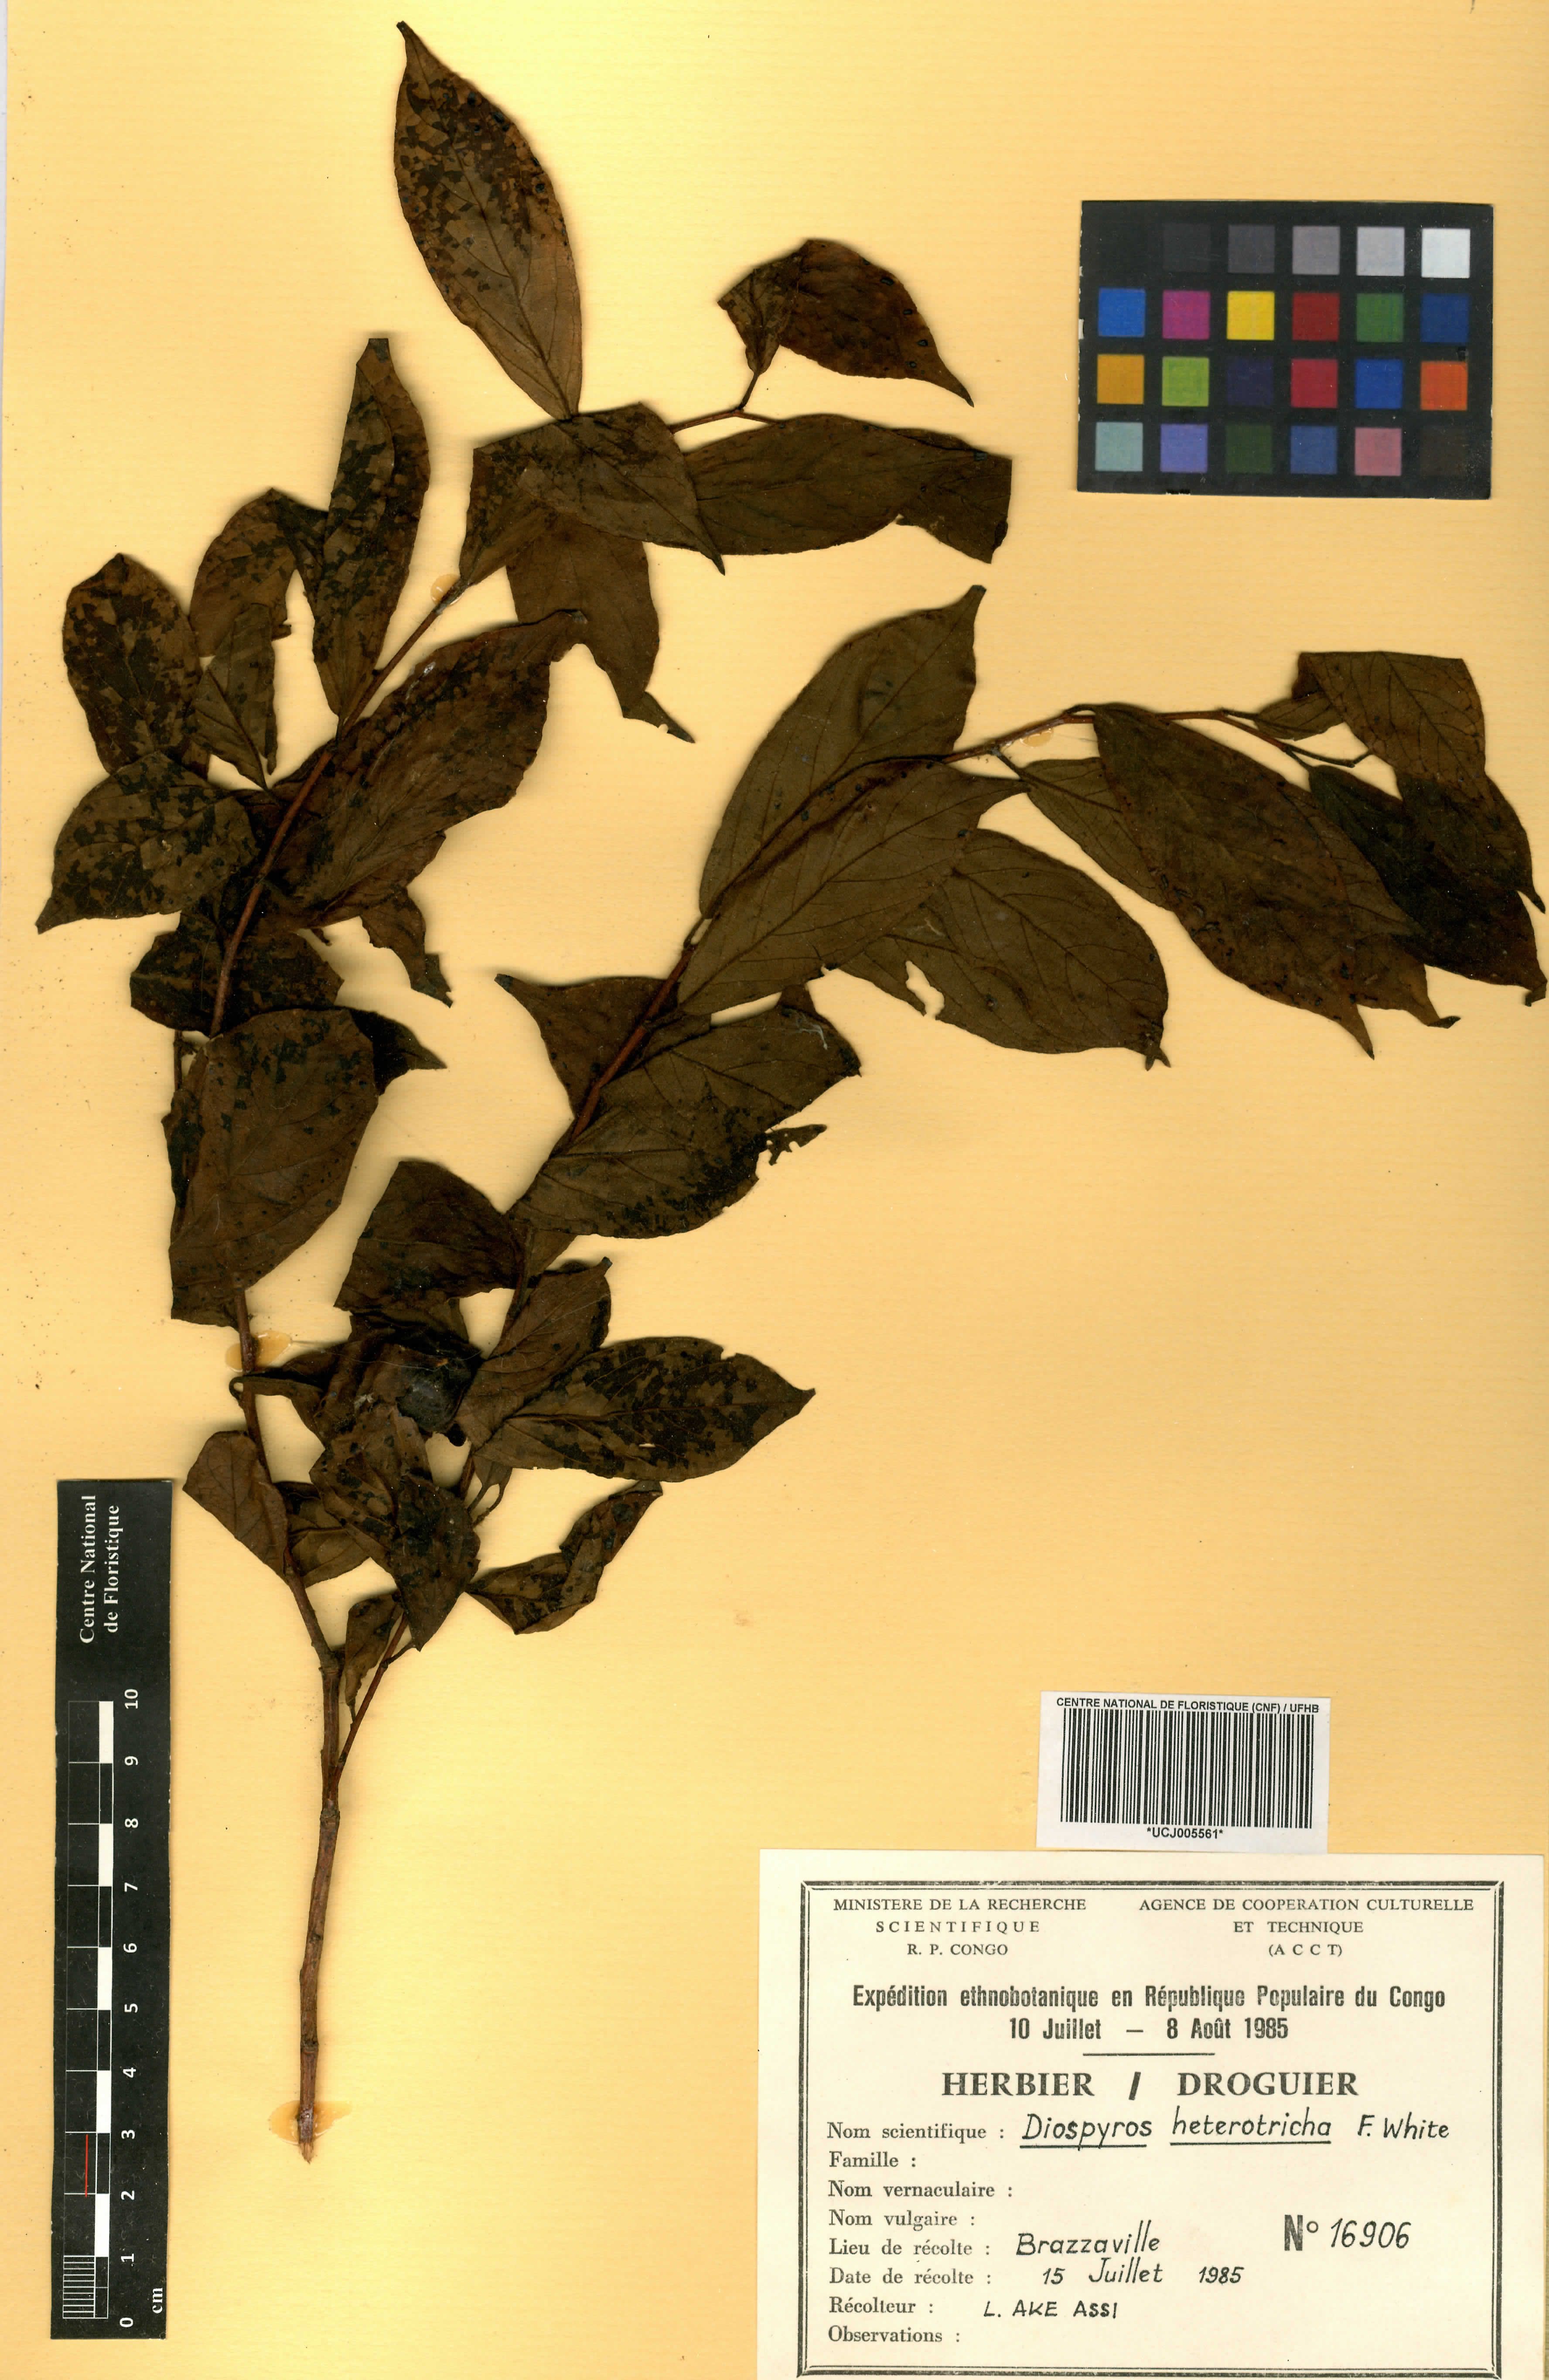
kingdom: Plantae
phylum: Tracheophyta
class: Magnoliopsida
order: Ericales
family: Ebenaceae
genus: Diospyros
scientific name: Diospyros heterotricha
